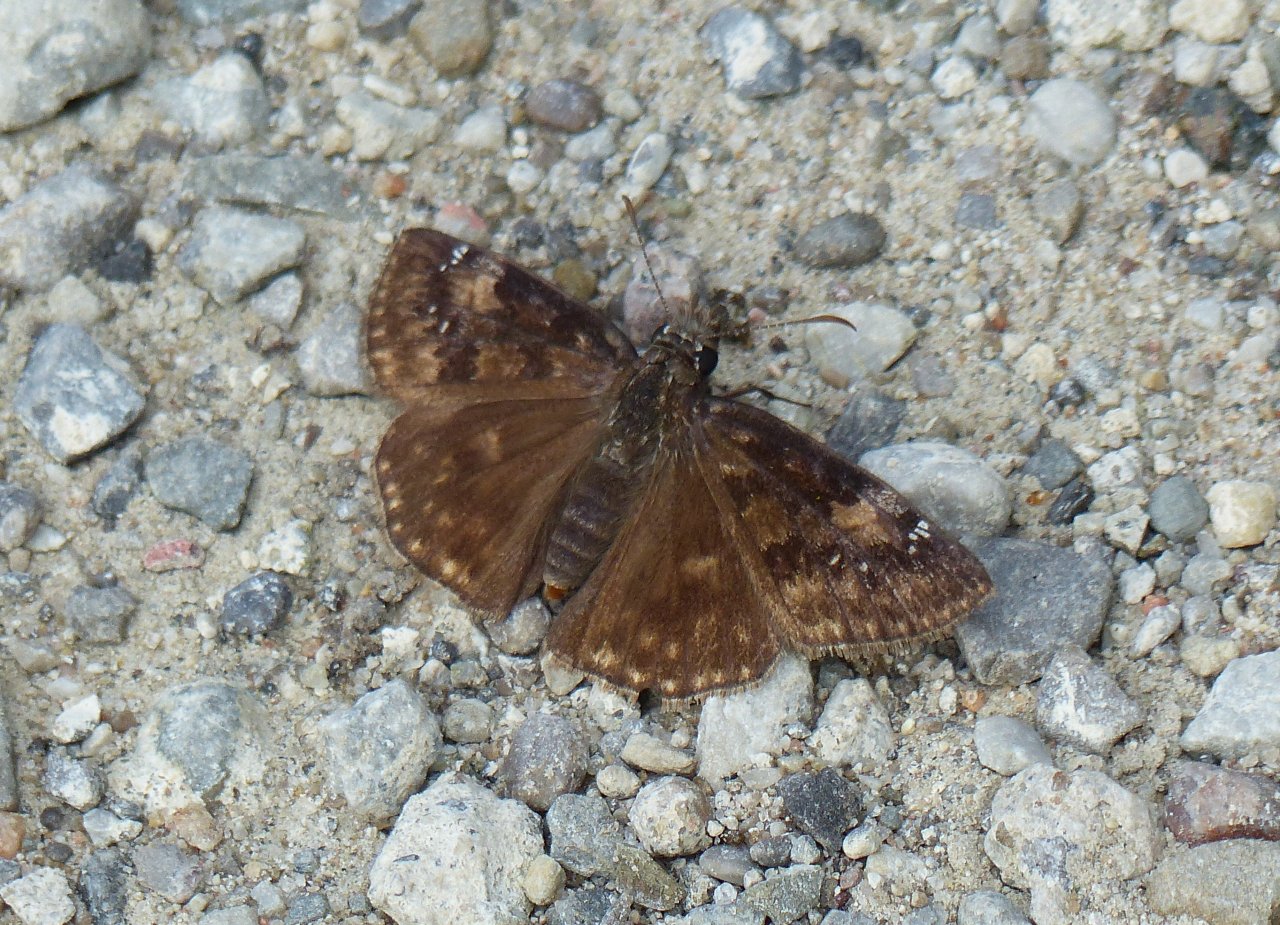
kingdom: Animalia
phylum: Arthropoda
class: Insecta
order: Lepidoptera
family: Hesperiidae
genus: Gesta
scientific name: Gesta
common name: Wild Indigo Duskywing
